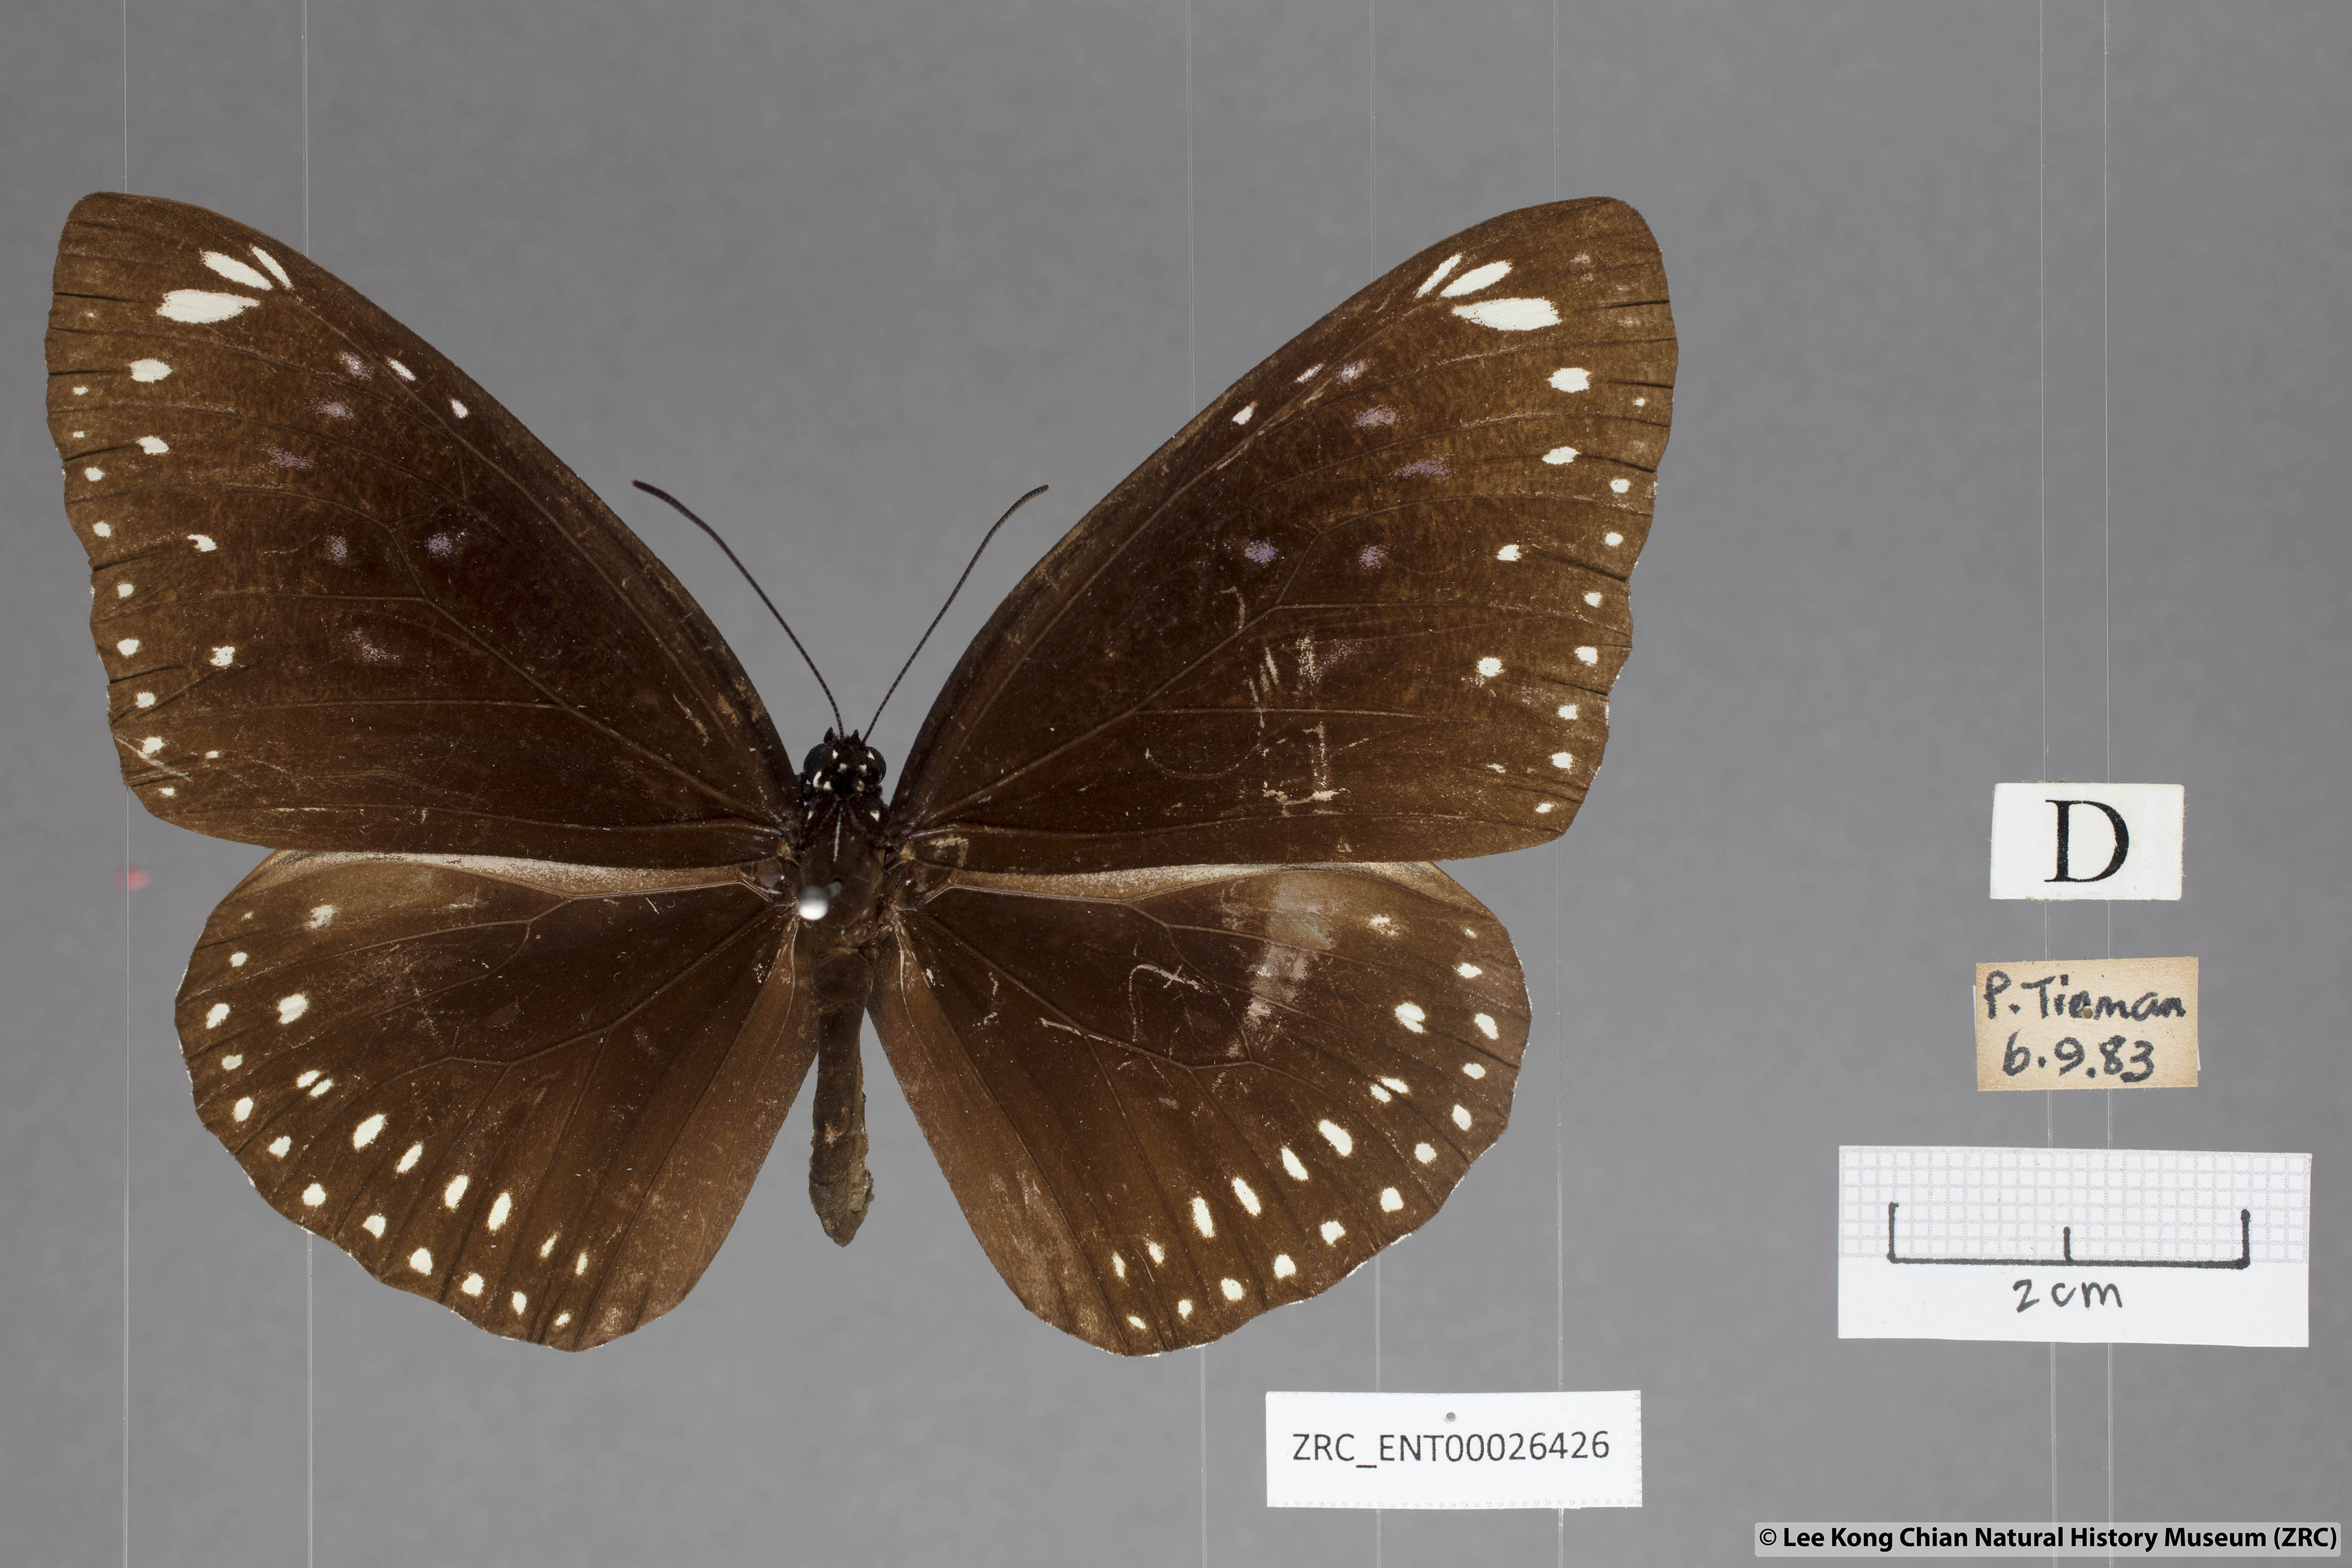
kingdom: Animalia
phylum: Arthropoda
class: Insecta
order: Lepidoptera
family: Nymphalidae
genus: Euploea
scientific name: Euploea crameri
